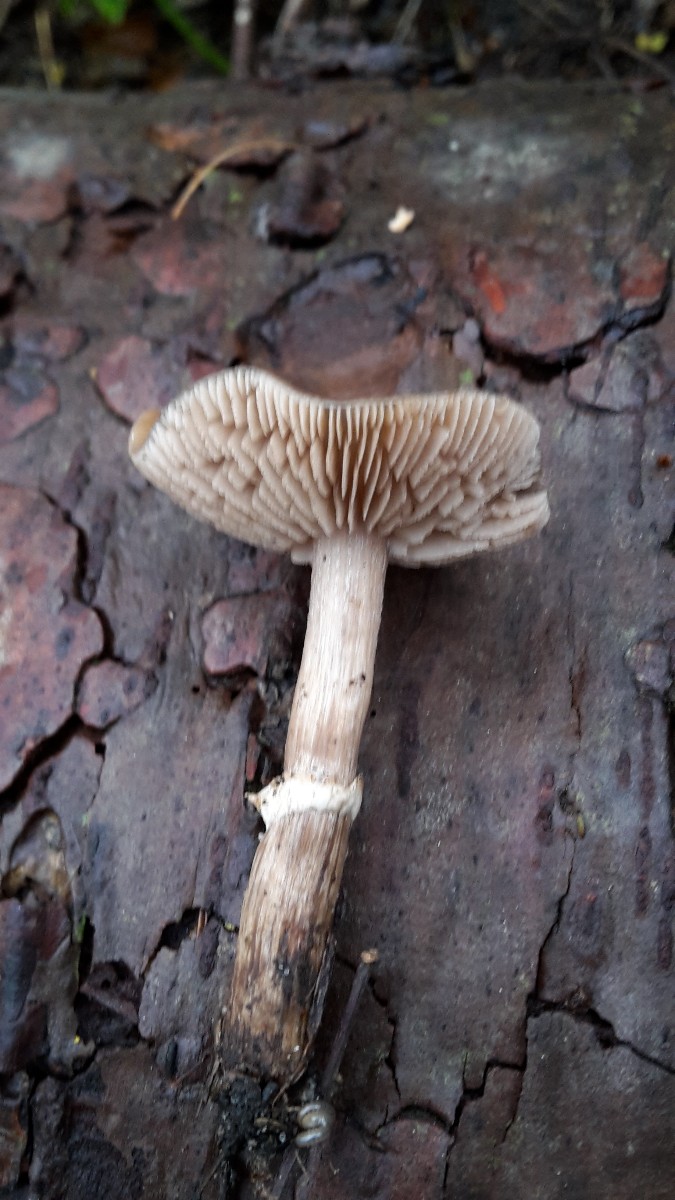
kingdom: Fungi
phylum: Basidiomycota
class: Agaricomycetes
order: Agaricales
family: Tubariaceae
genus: Cyclocybe
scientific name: Cyclocybe erebia
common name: mørk agerhat
